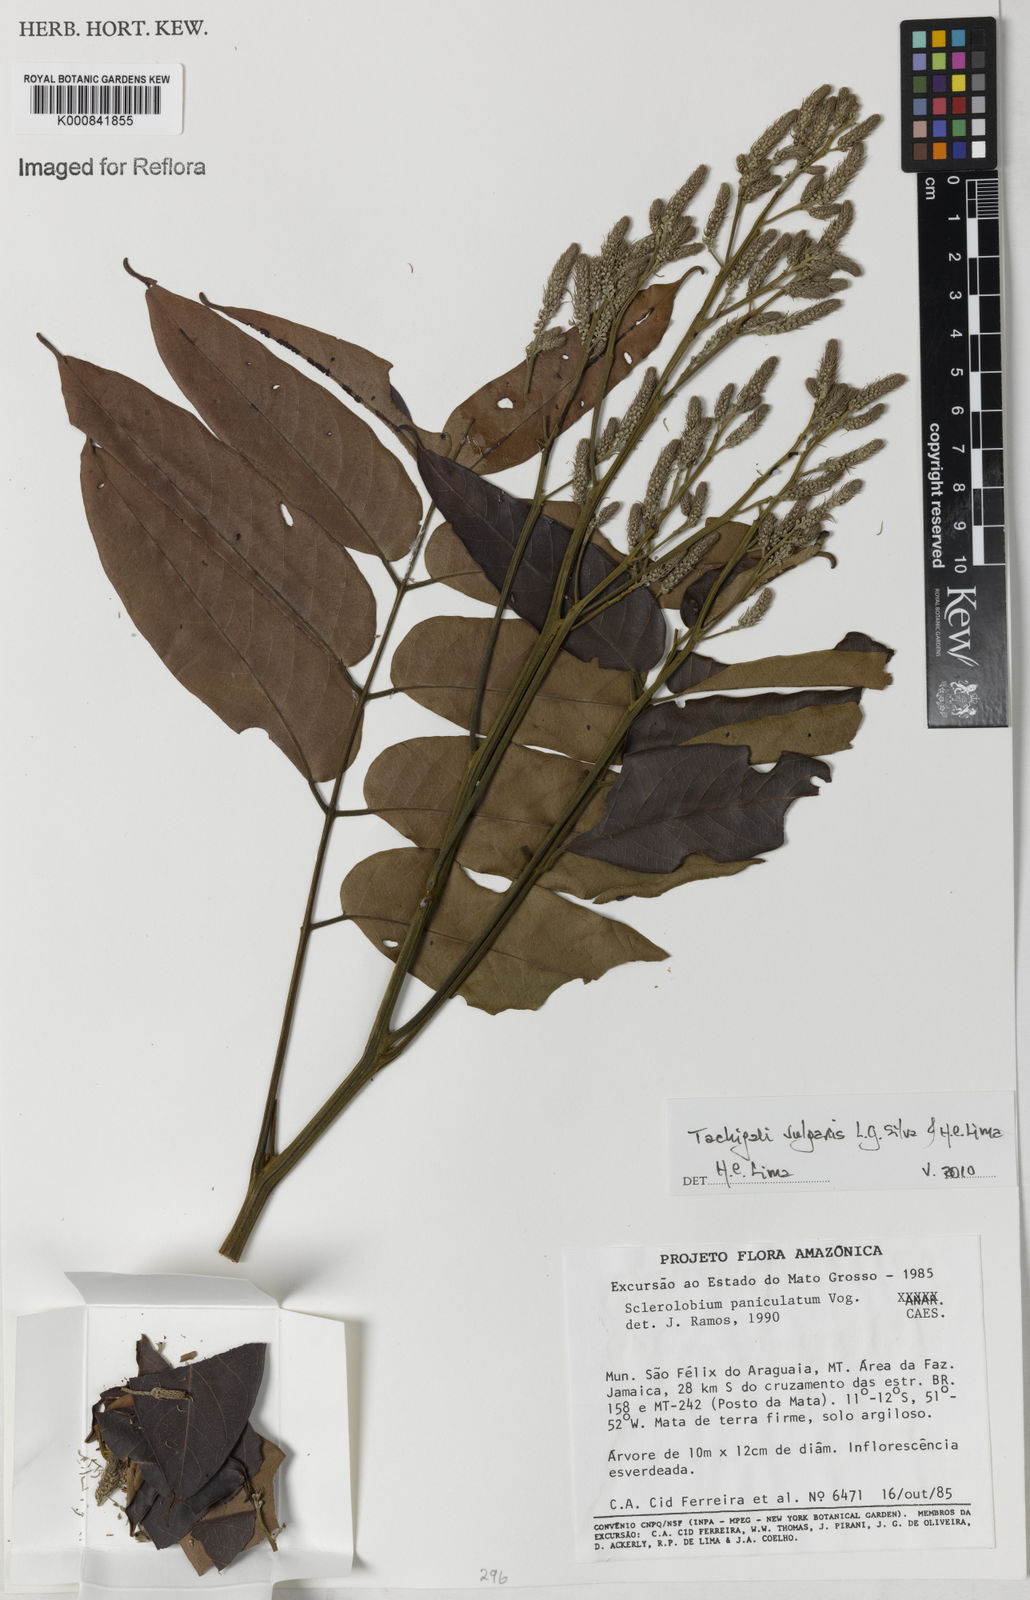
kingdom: Plantae
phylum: Tracheophyta
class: Magnoliopsida
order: Fabales
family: Fabaceae
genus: Tachigali
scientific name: Tachigali vulgaris
